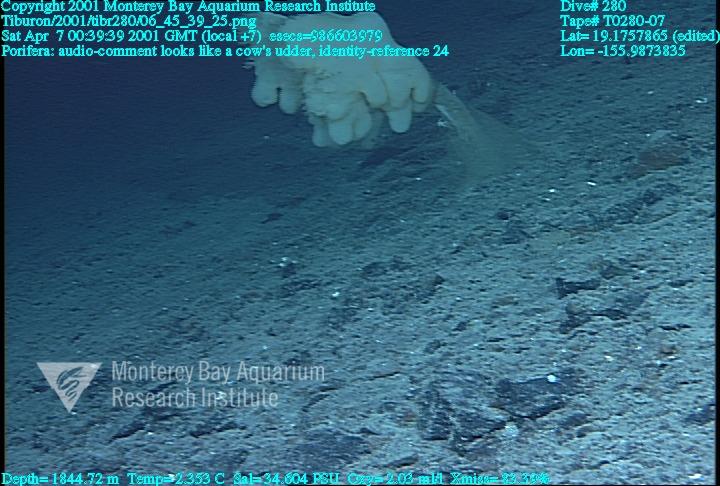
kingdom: Animalia
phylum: Porifera
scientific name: Porifera
